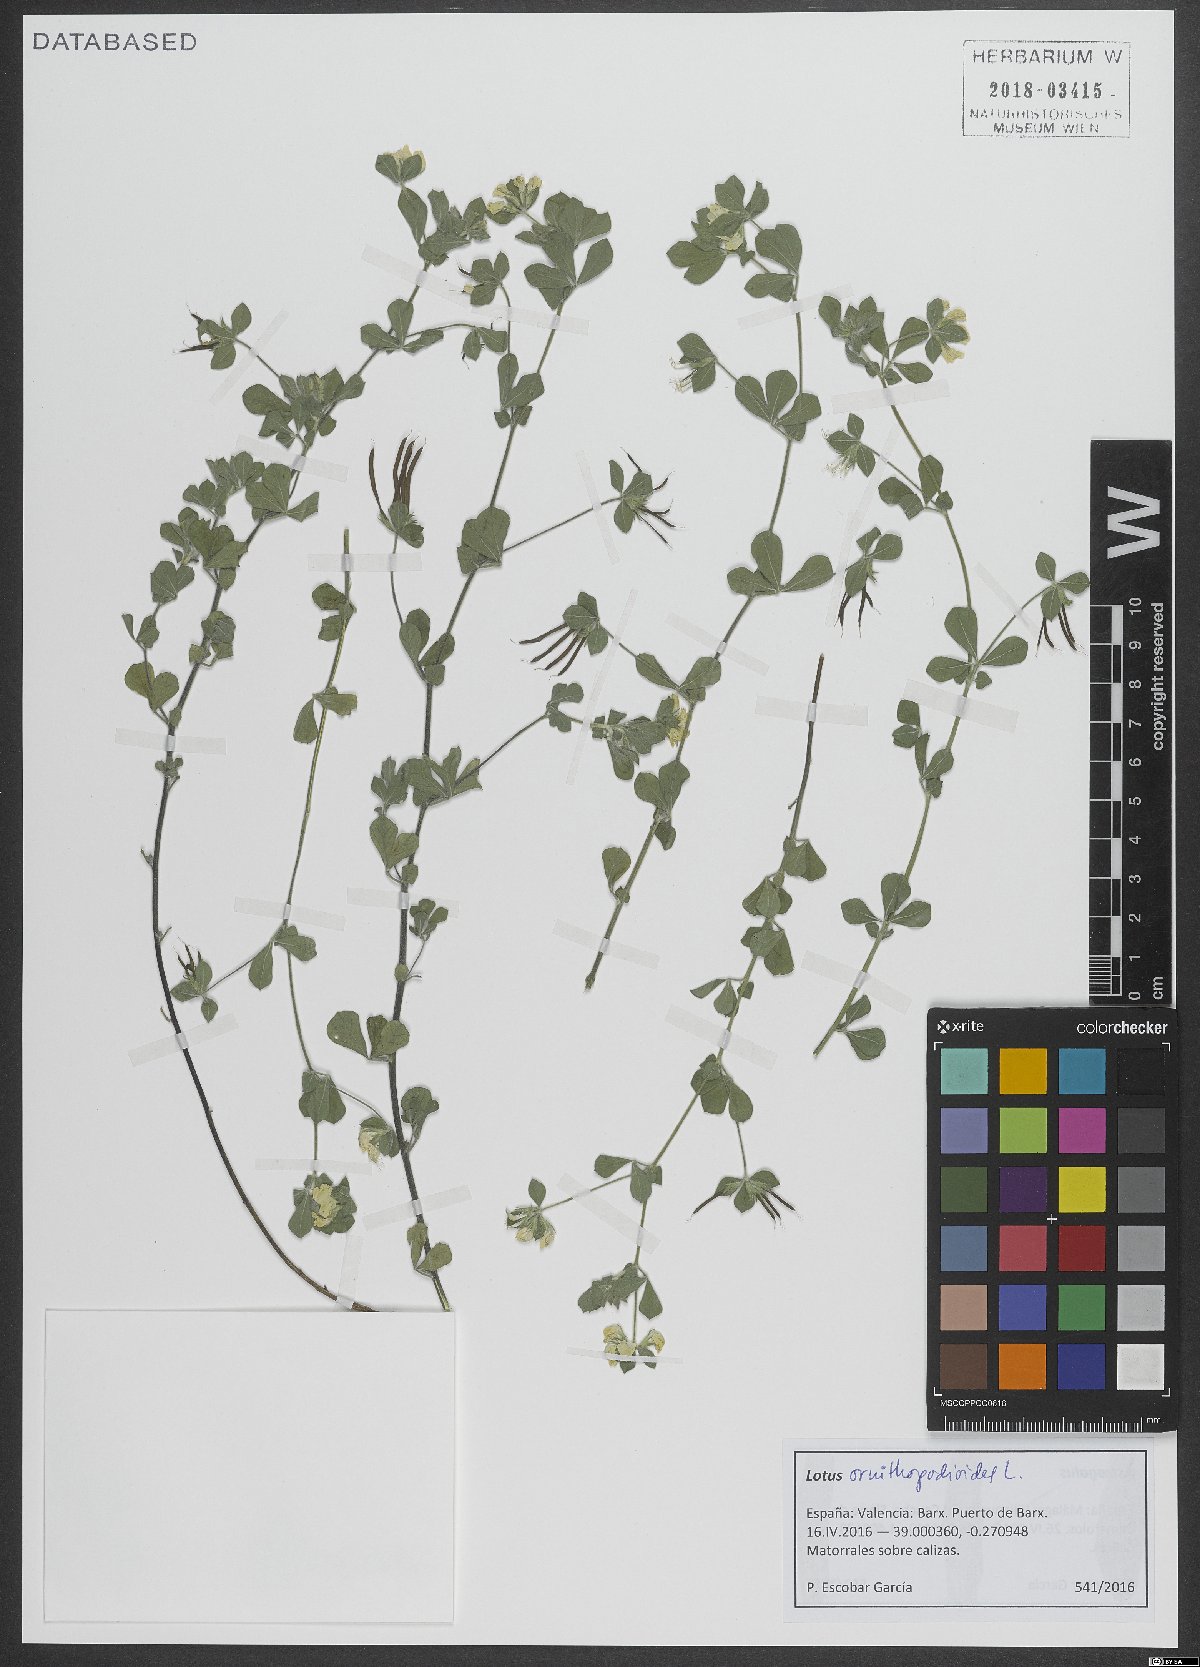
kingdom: Plantae
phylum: Tracheophyta
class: Magnoliopsida
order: Fabales
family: Fabaceae
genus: Lotus
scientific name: Lotus ornithopodioides
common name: Southern bird's-foot trefoil
